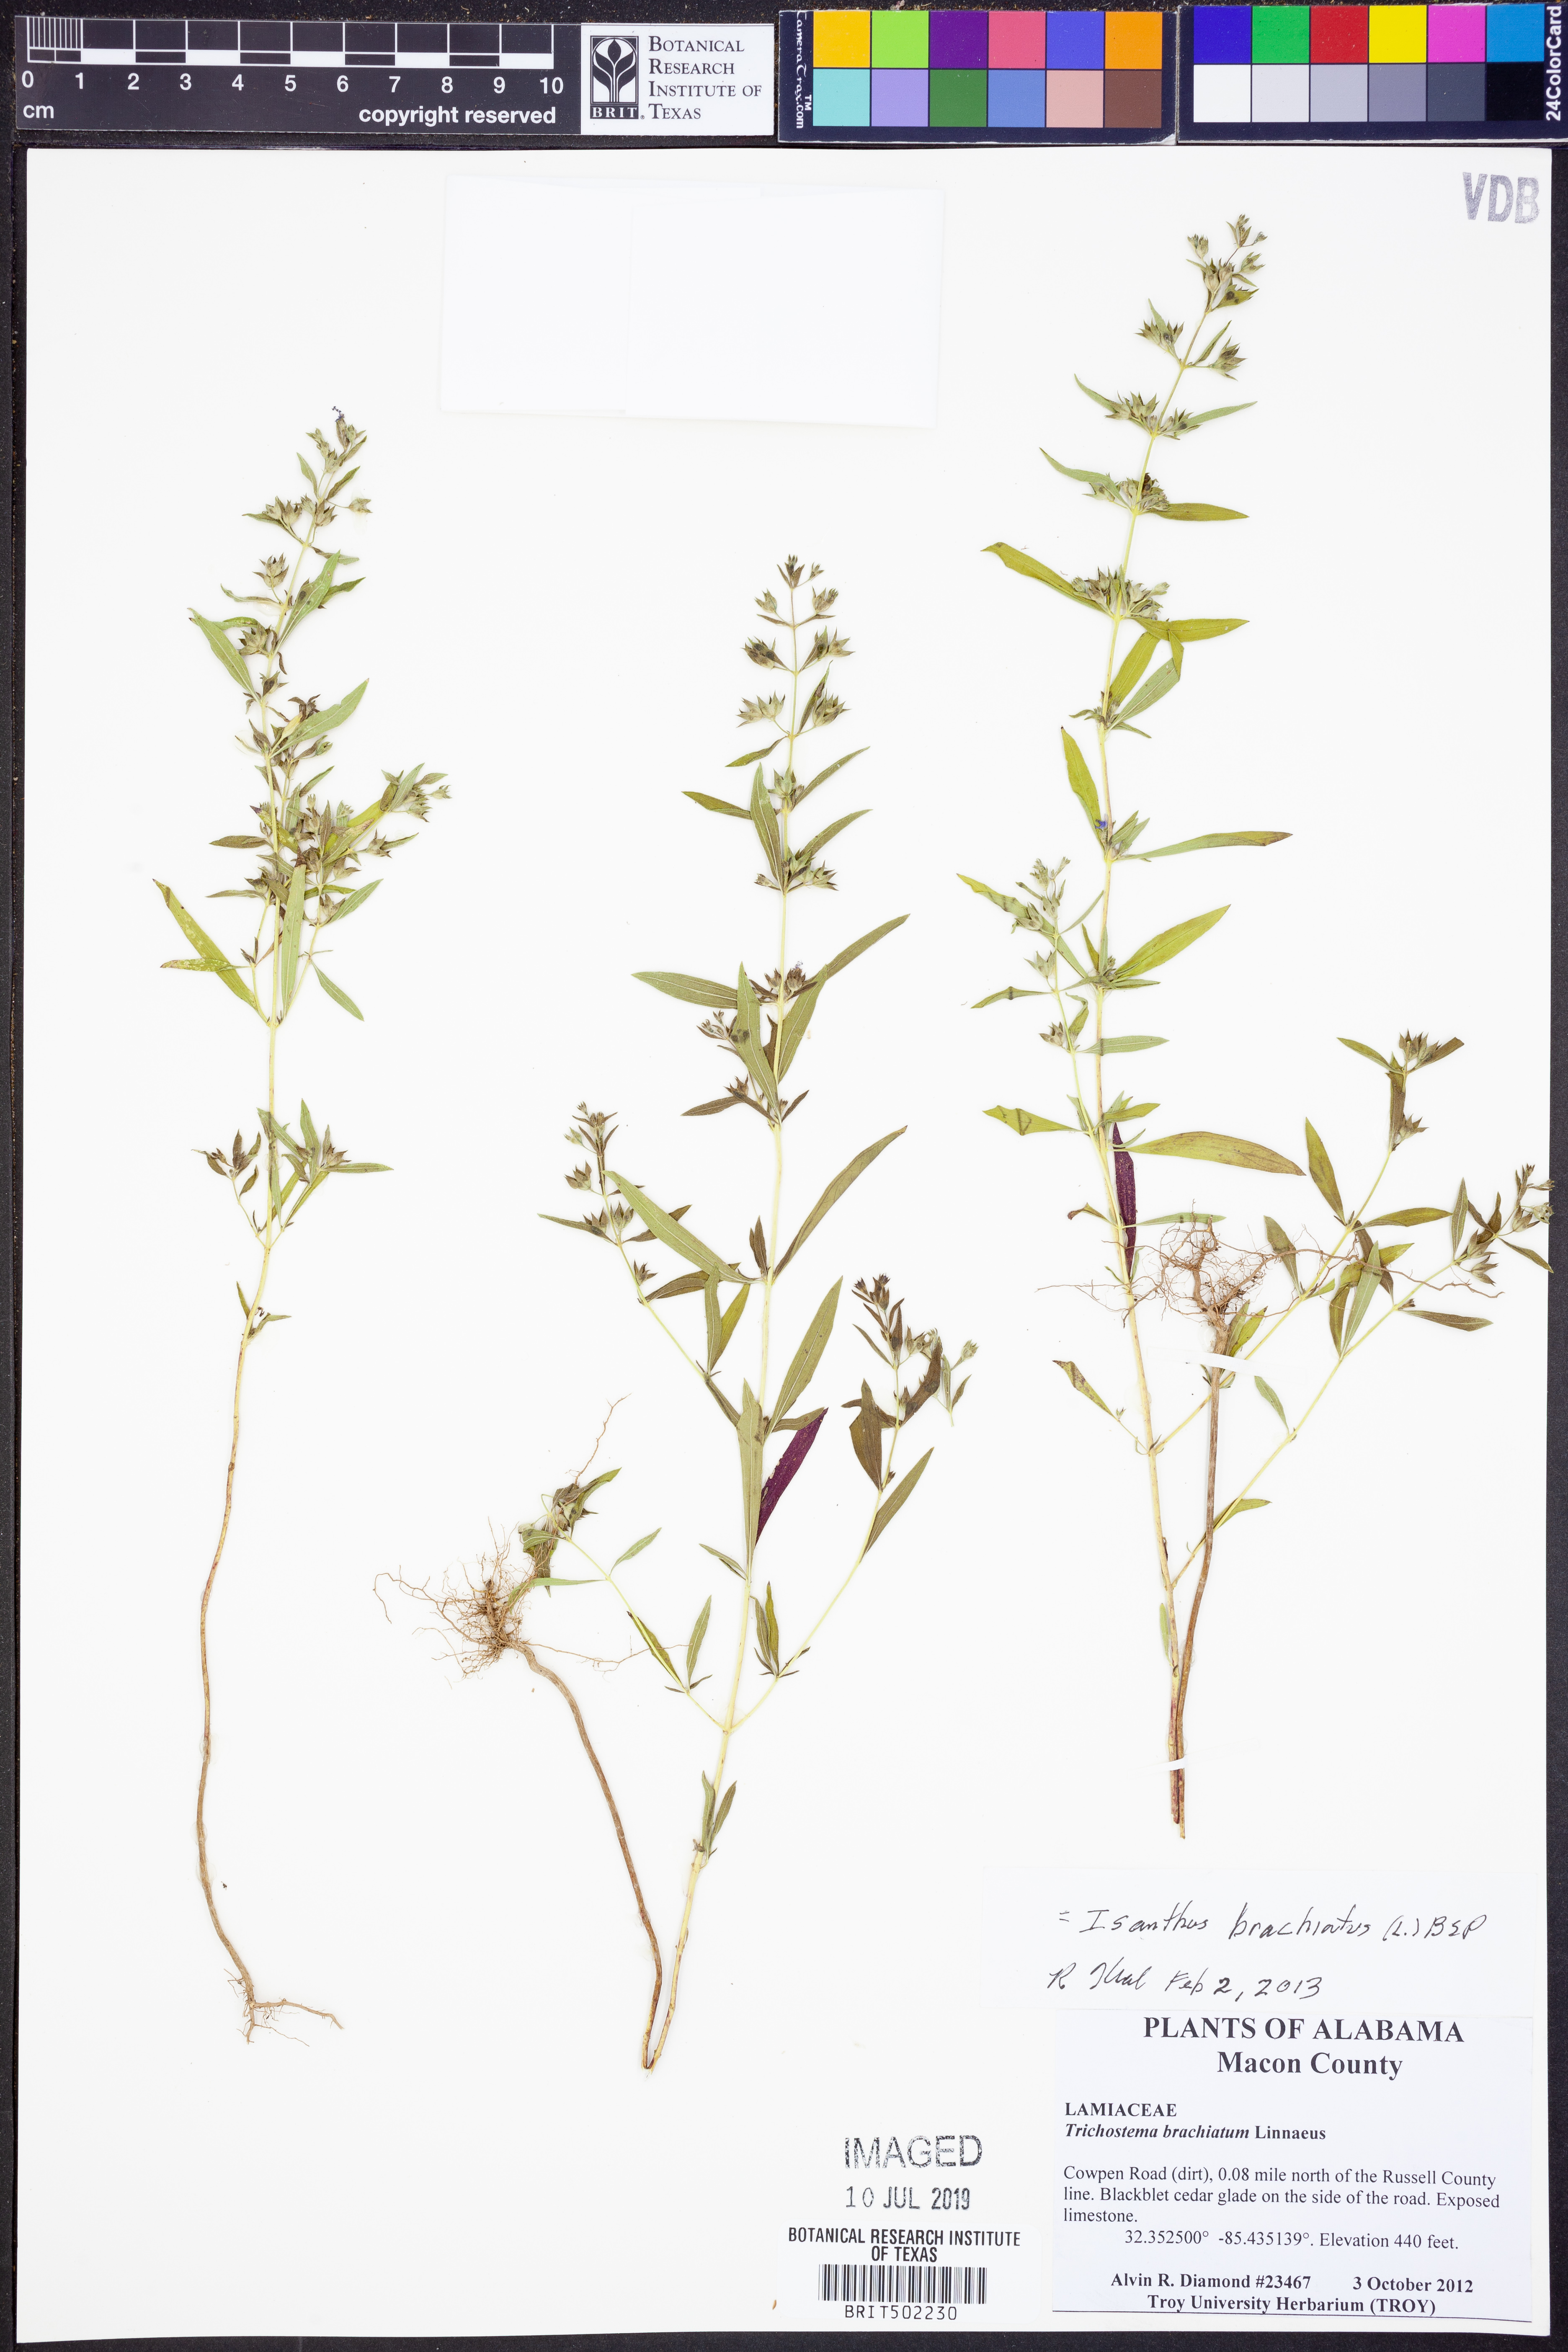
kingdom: Plantae
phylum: Tracheophyta
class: Magnoliopsida
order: Lamiales
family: Lamiaceae
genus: Trichostema
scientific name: Trichostema brachiatum
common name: False pennyroyal
